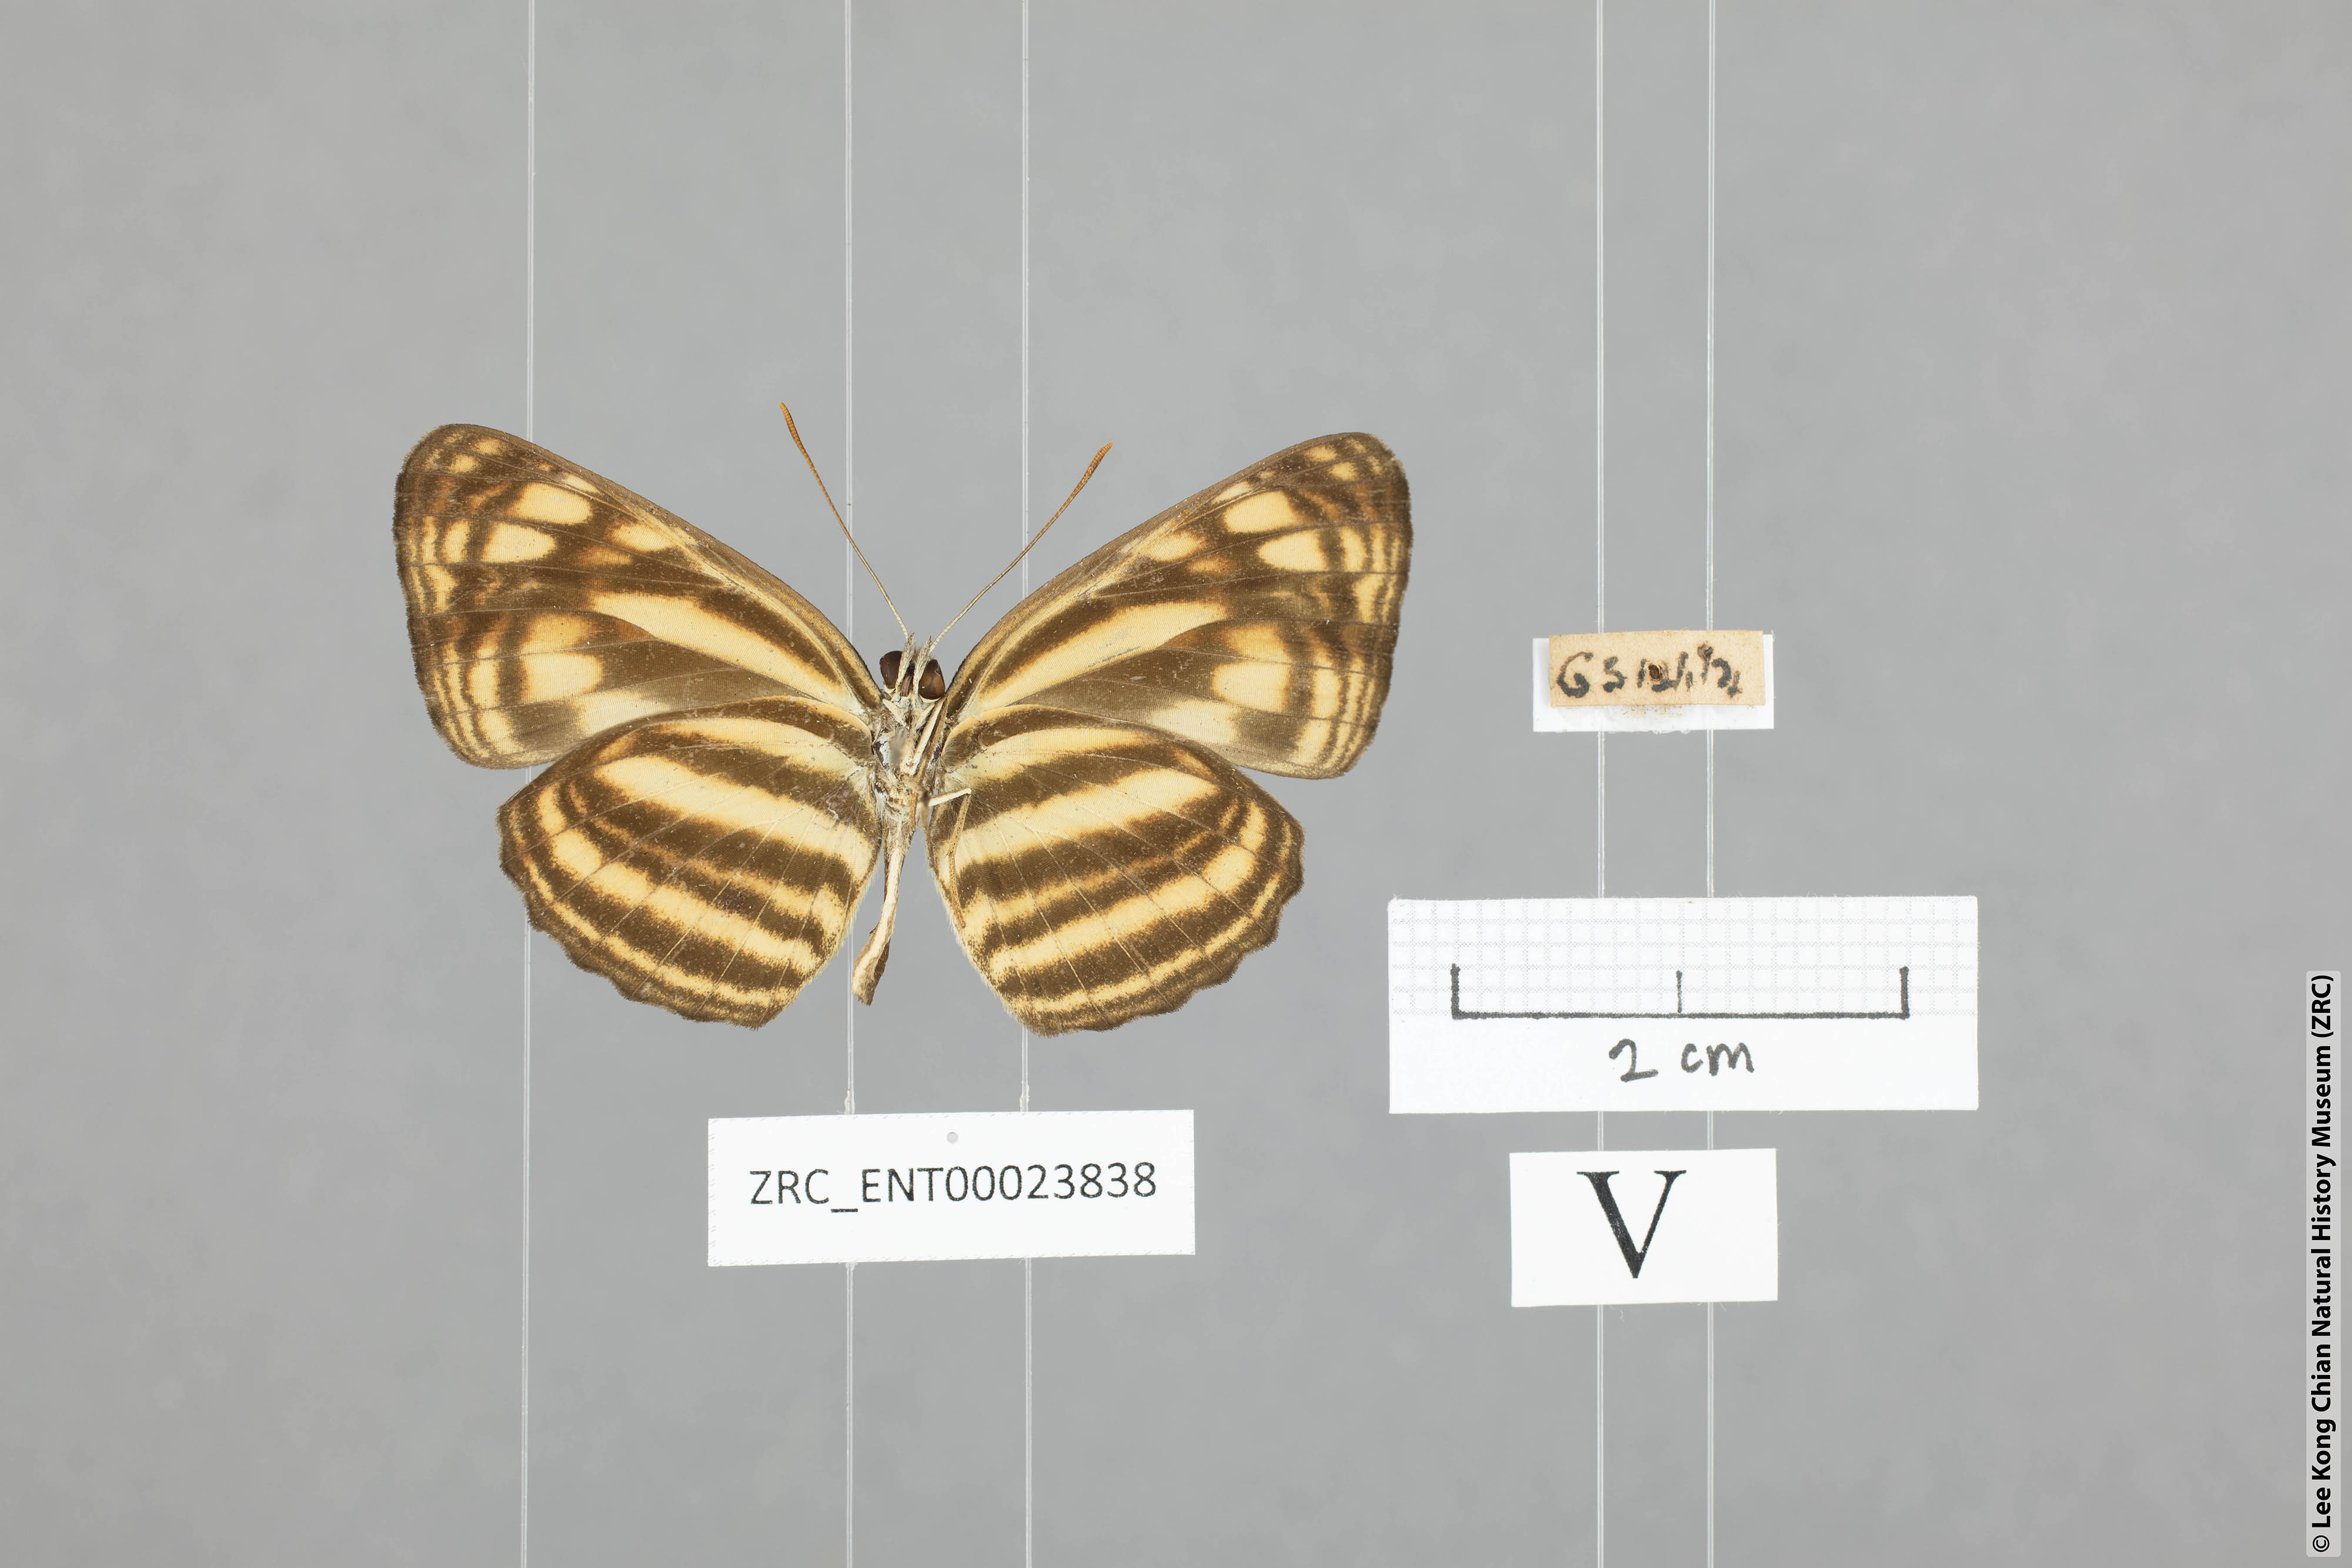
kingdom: Animalia
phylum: Arthropoda
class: Insecta
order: Lepidoptera
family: Nymphalidae
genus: Lasippa
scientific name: Lasippa monata
